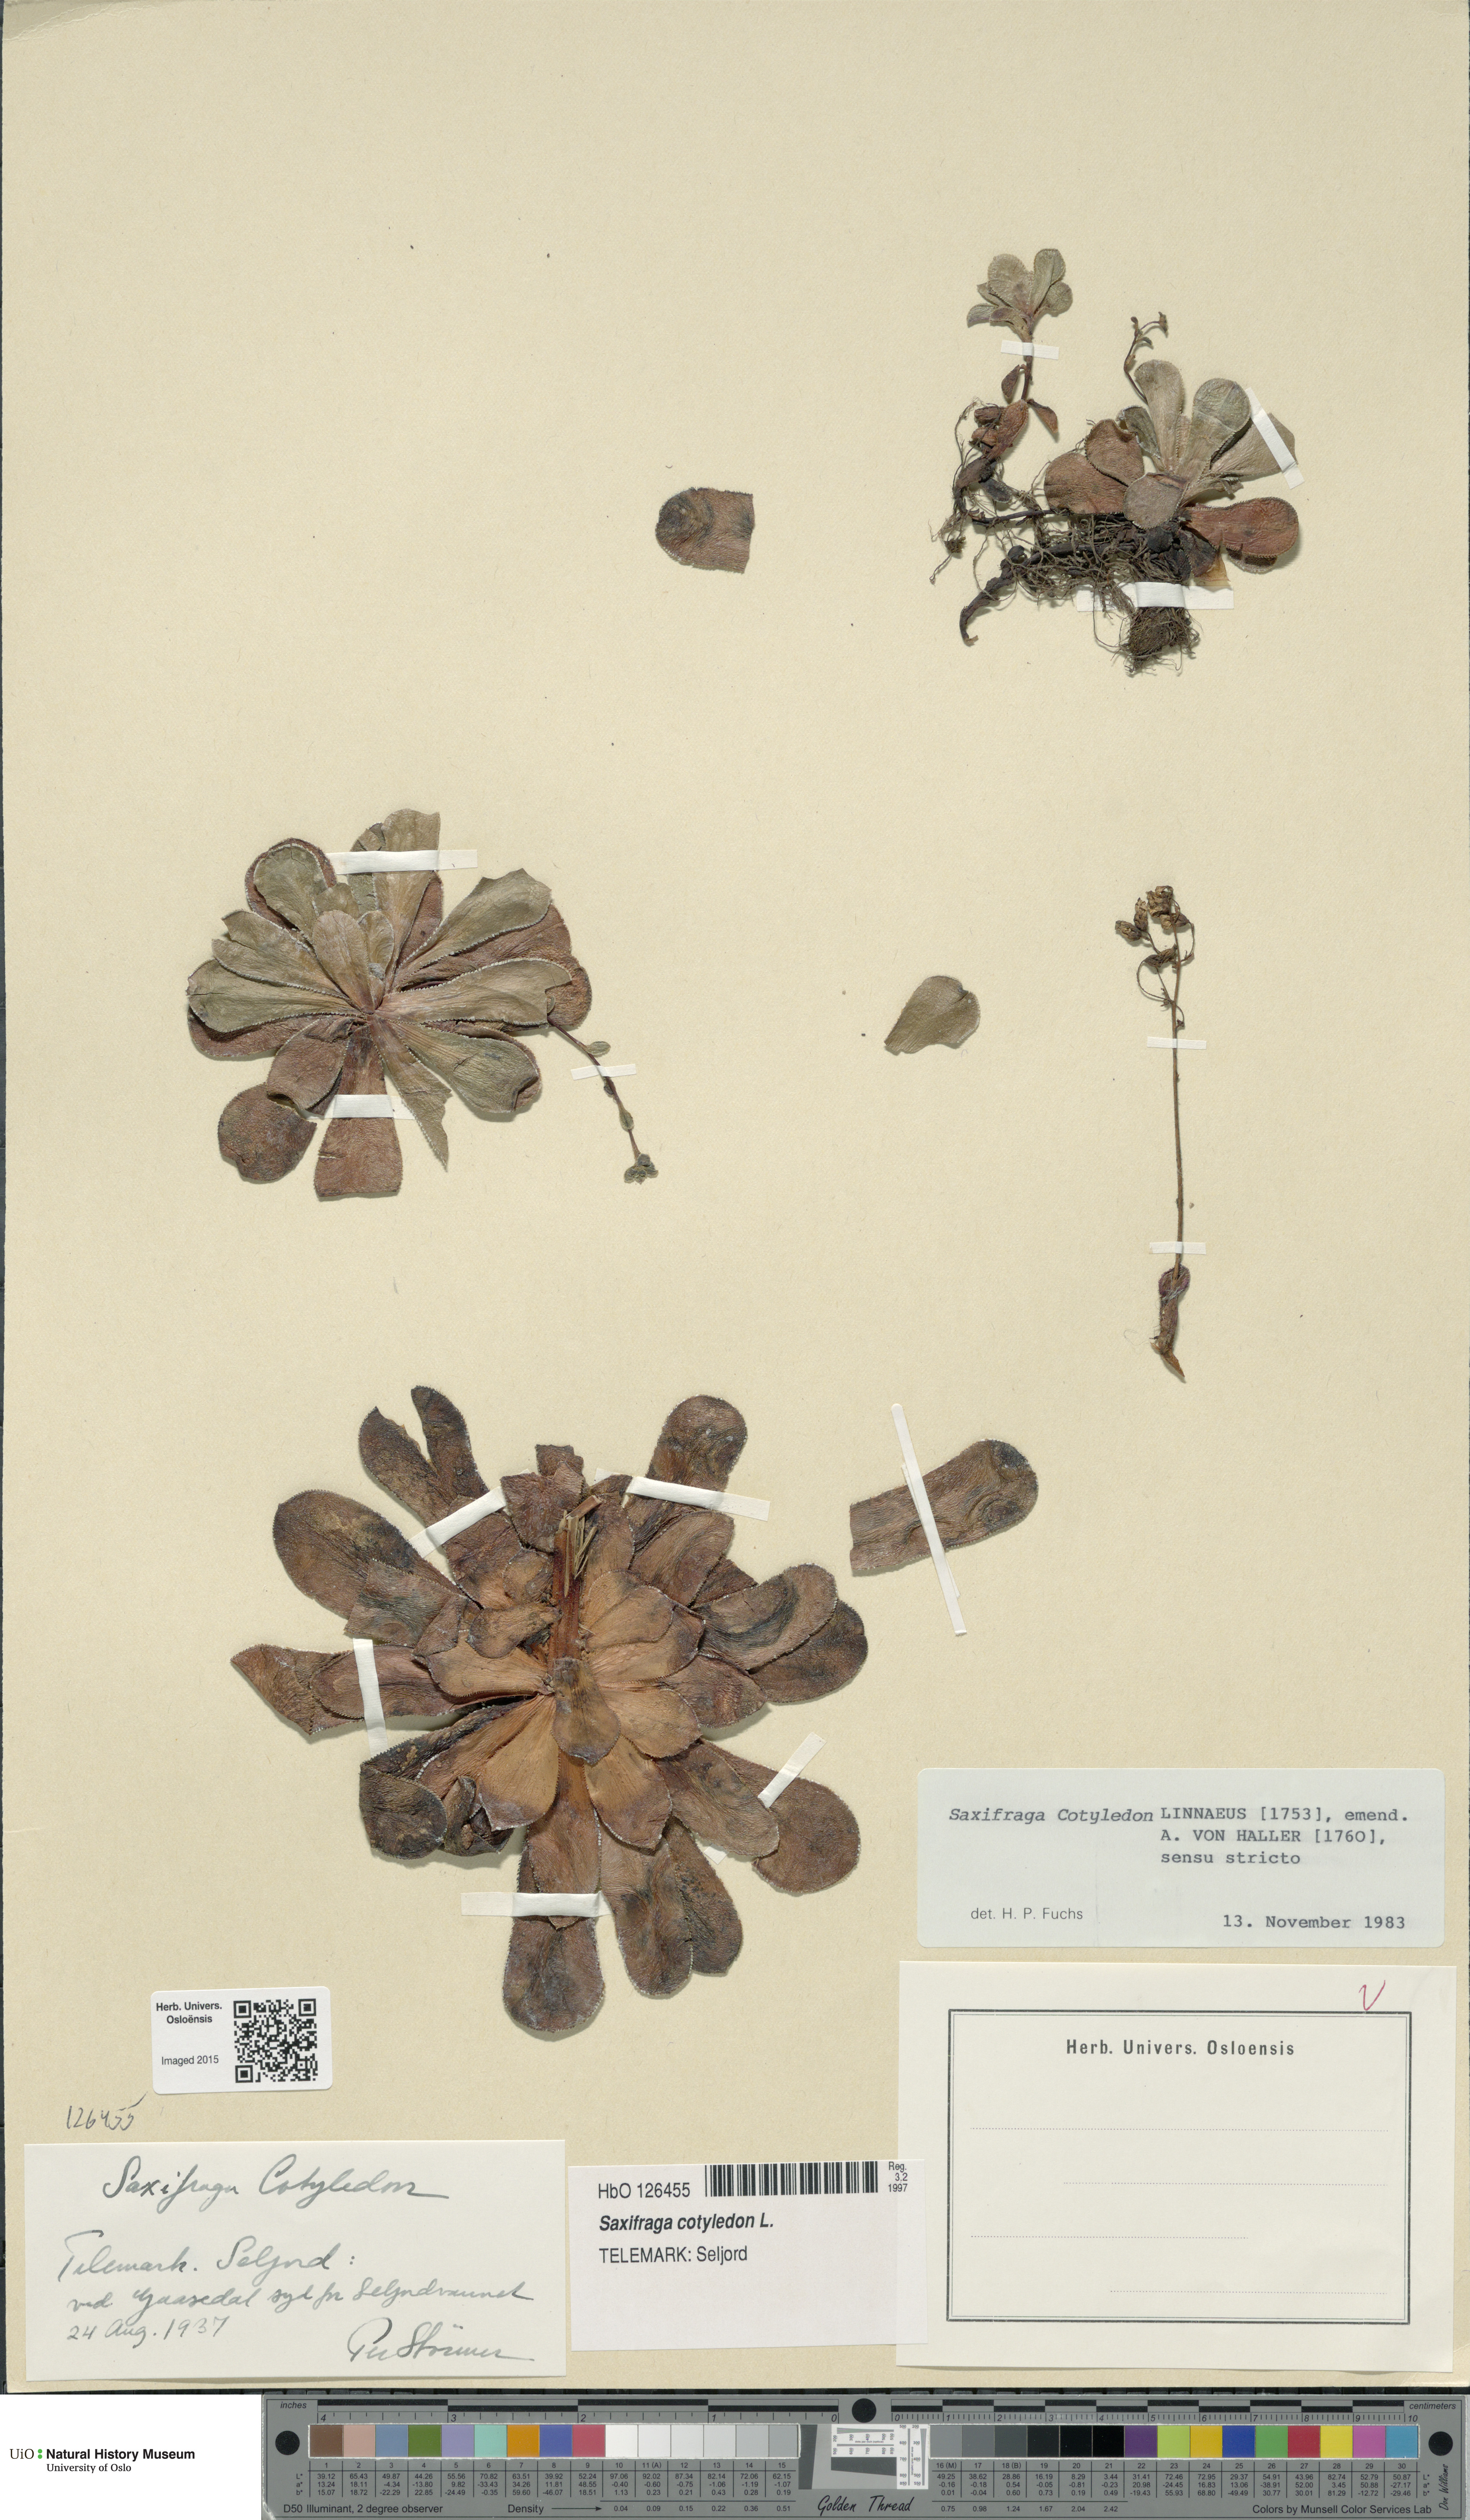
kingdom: Plantae
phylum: Tracheophyta
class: Magnoliopsida
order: Saxifragales
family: Saxifragaceae
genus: Saxifraga
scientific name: Saxifraga cotyledon
